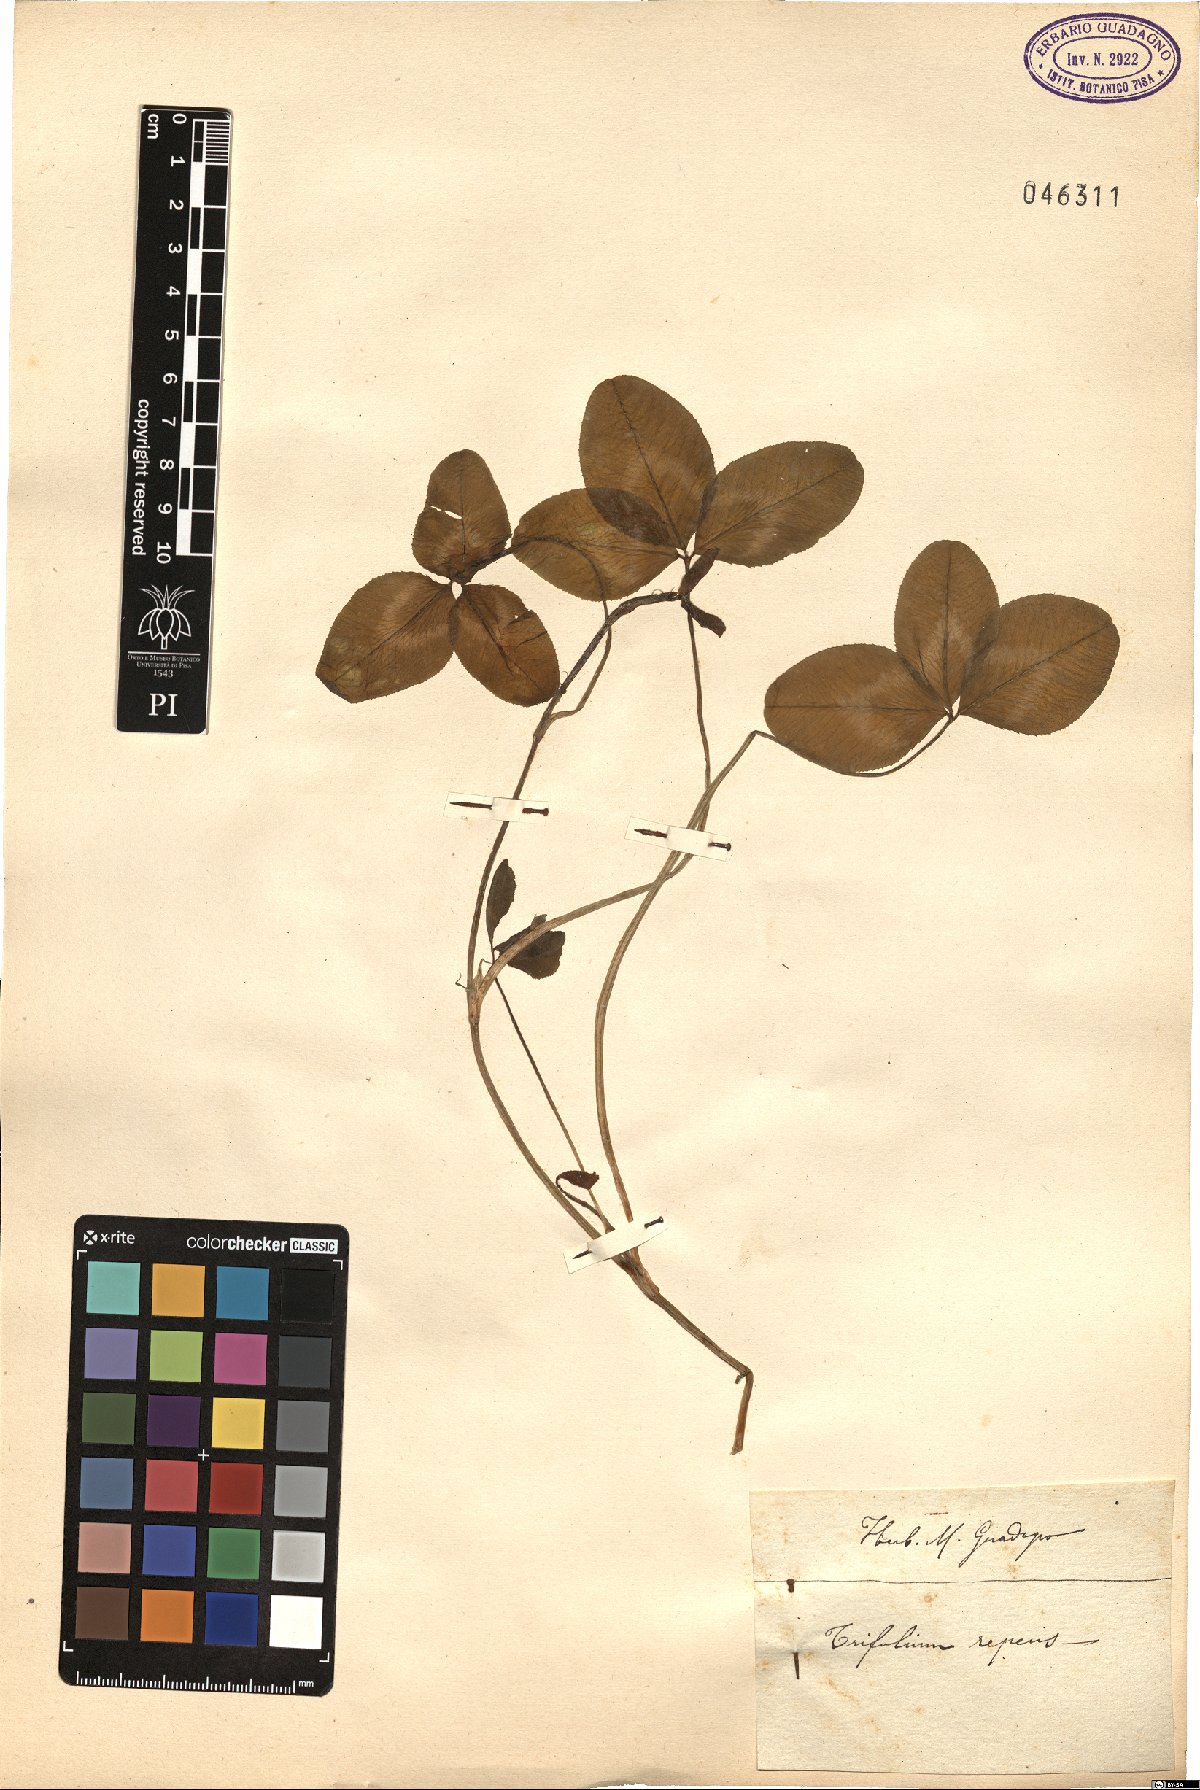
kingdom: Plantae
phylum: Tracheophyta
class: Magnoliopsida
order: Fabales
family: Fabaceae
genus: Trifolium
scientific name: Trifolium repens
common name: White clover
